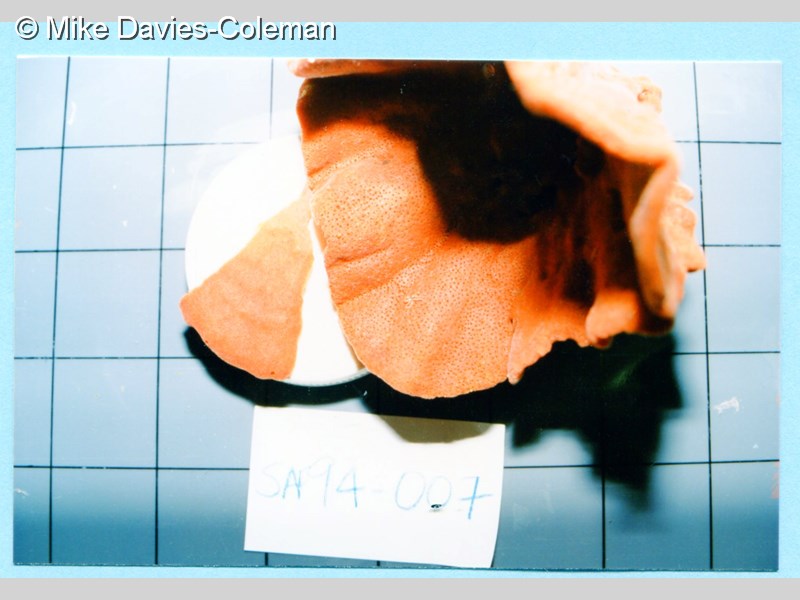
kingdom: Animalia
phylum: Porifera
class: Demospongiae
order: Axinellida
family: Axinellidae
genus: Axinella
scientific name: Axinella
